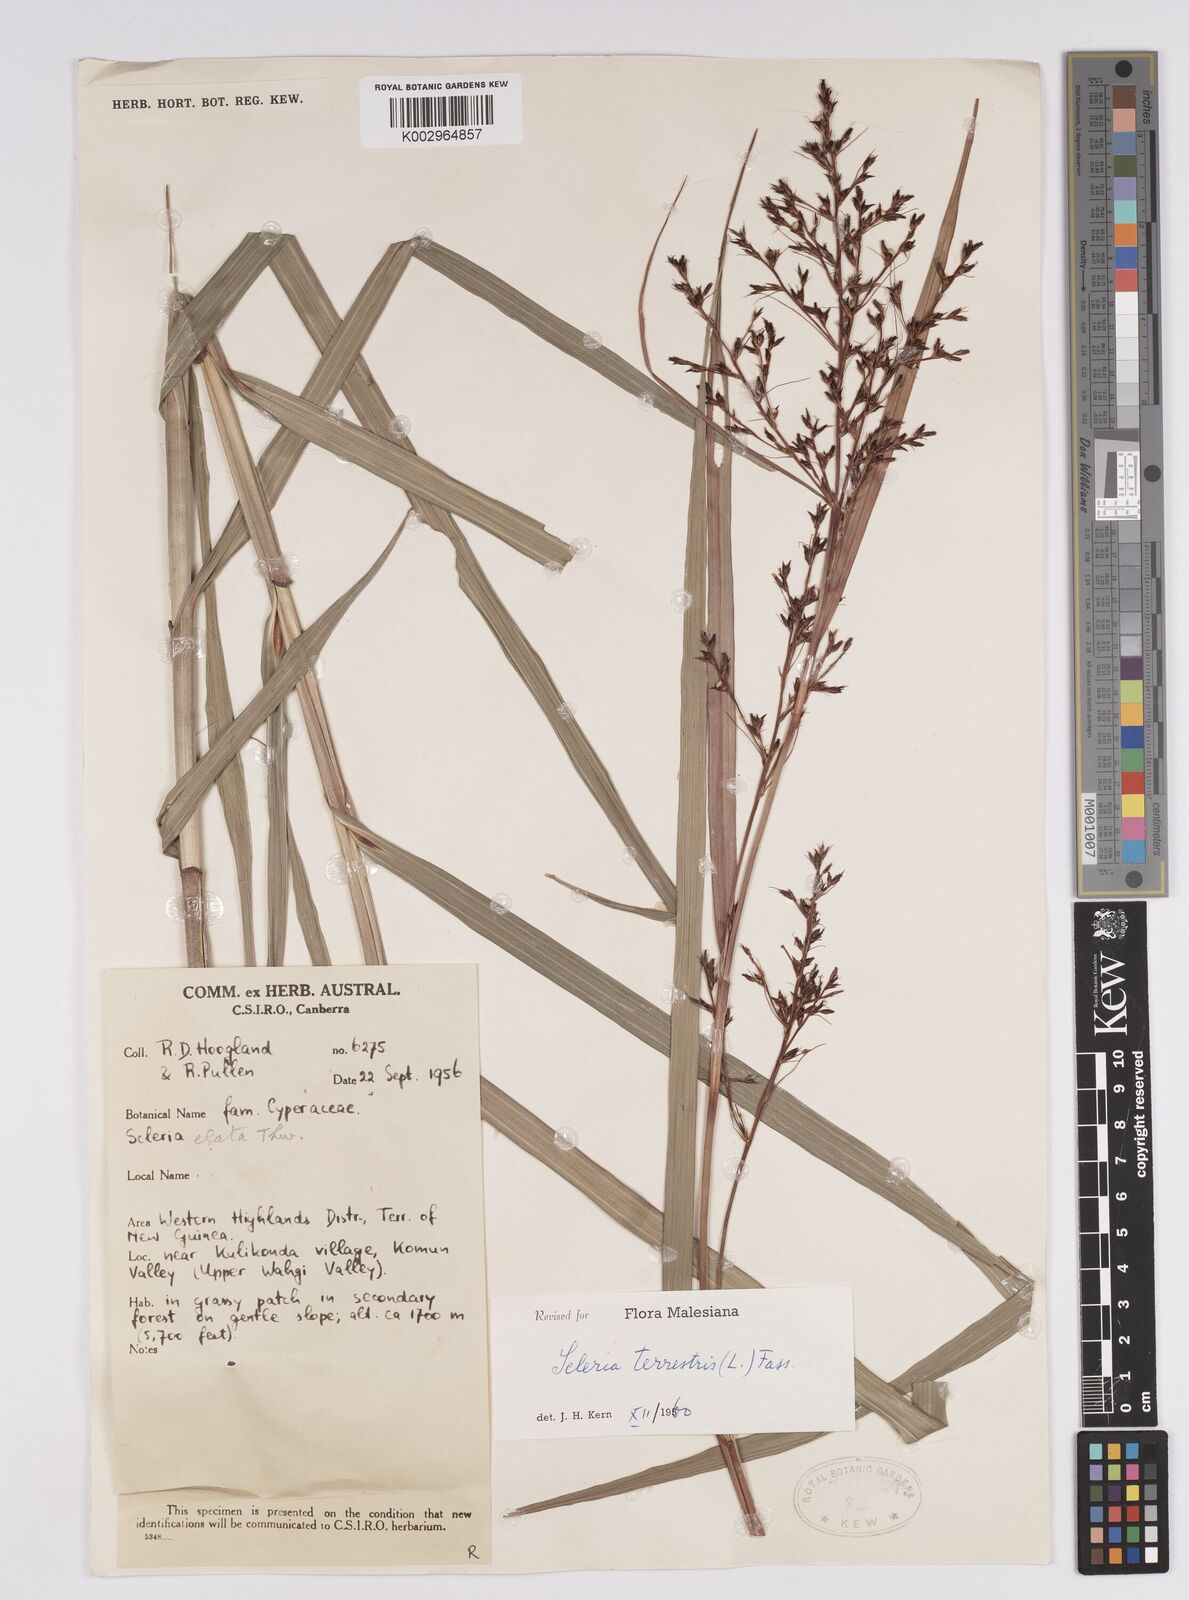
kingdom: Plantae
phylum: Tracheophyta
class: Liliopsida
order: Poales
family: Cyperaceae
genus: Scleria
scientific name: Scleria terrestris
